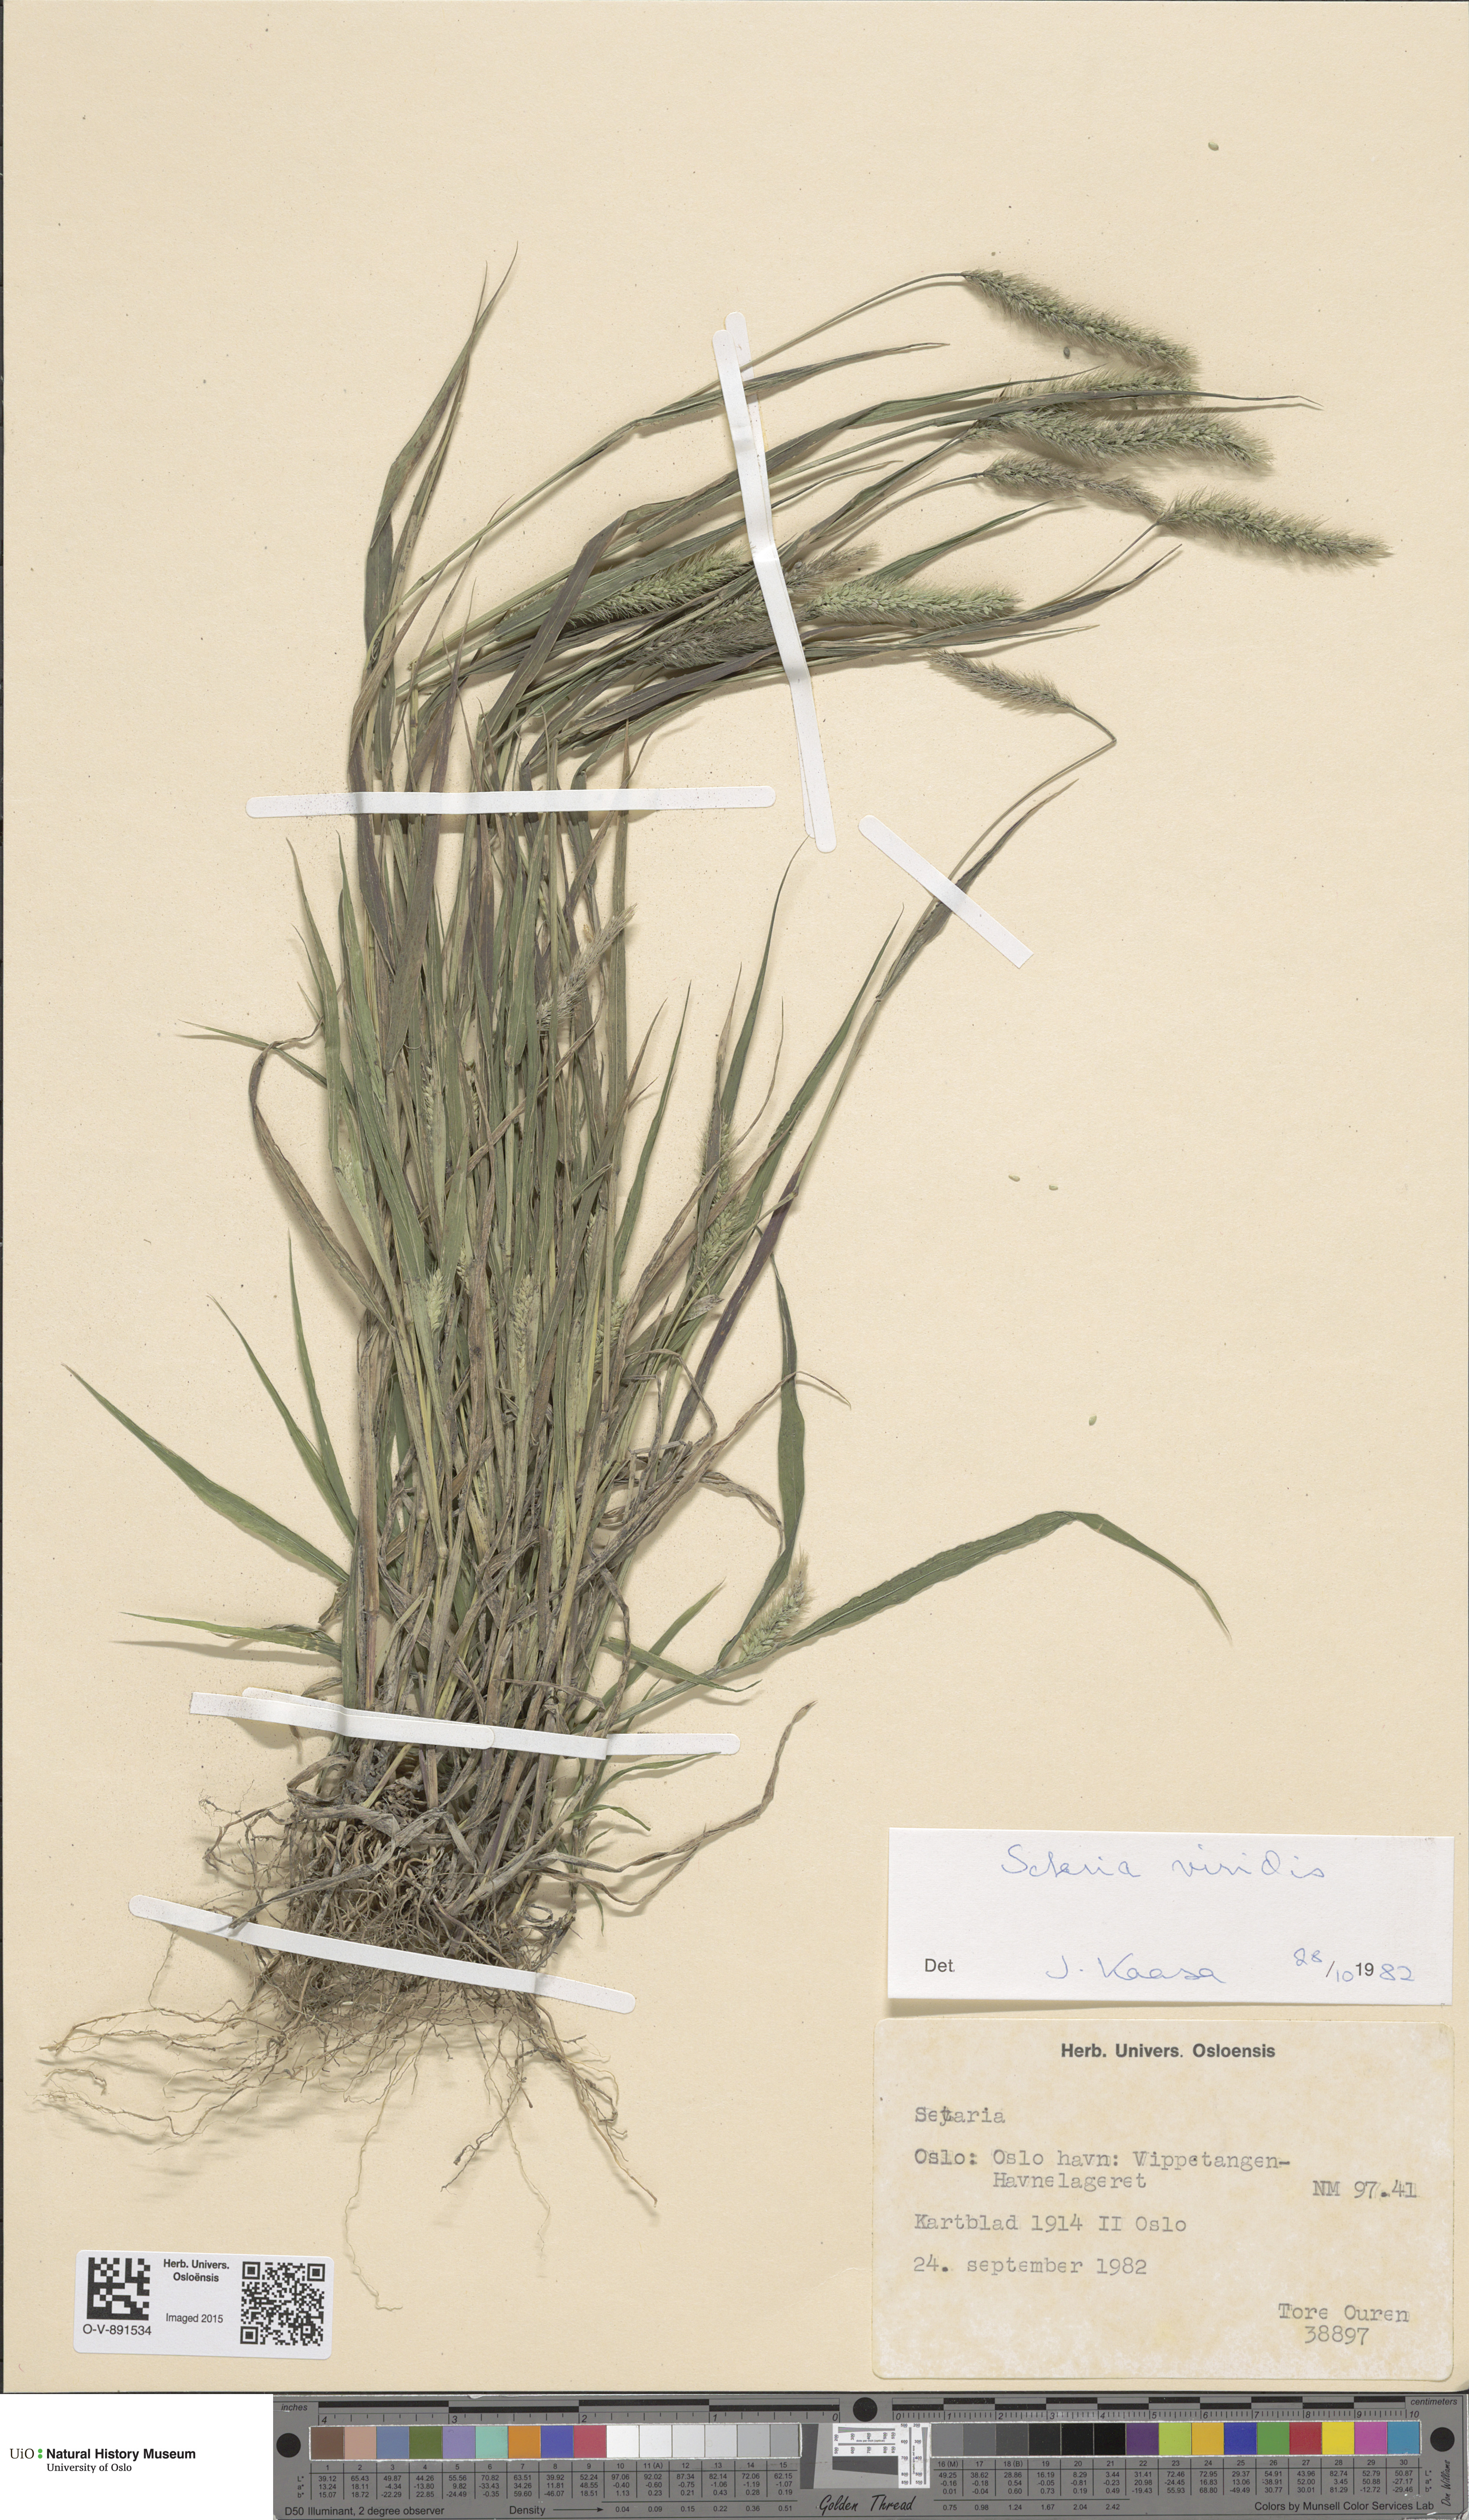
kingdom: Plantae
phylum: Tracheophyta
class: Liliopsida
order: Poales
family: Poaceae
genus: Setaria
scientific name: Setaria viridis
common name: Green bristlegrass
